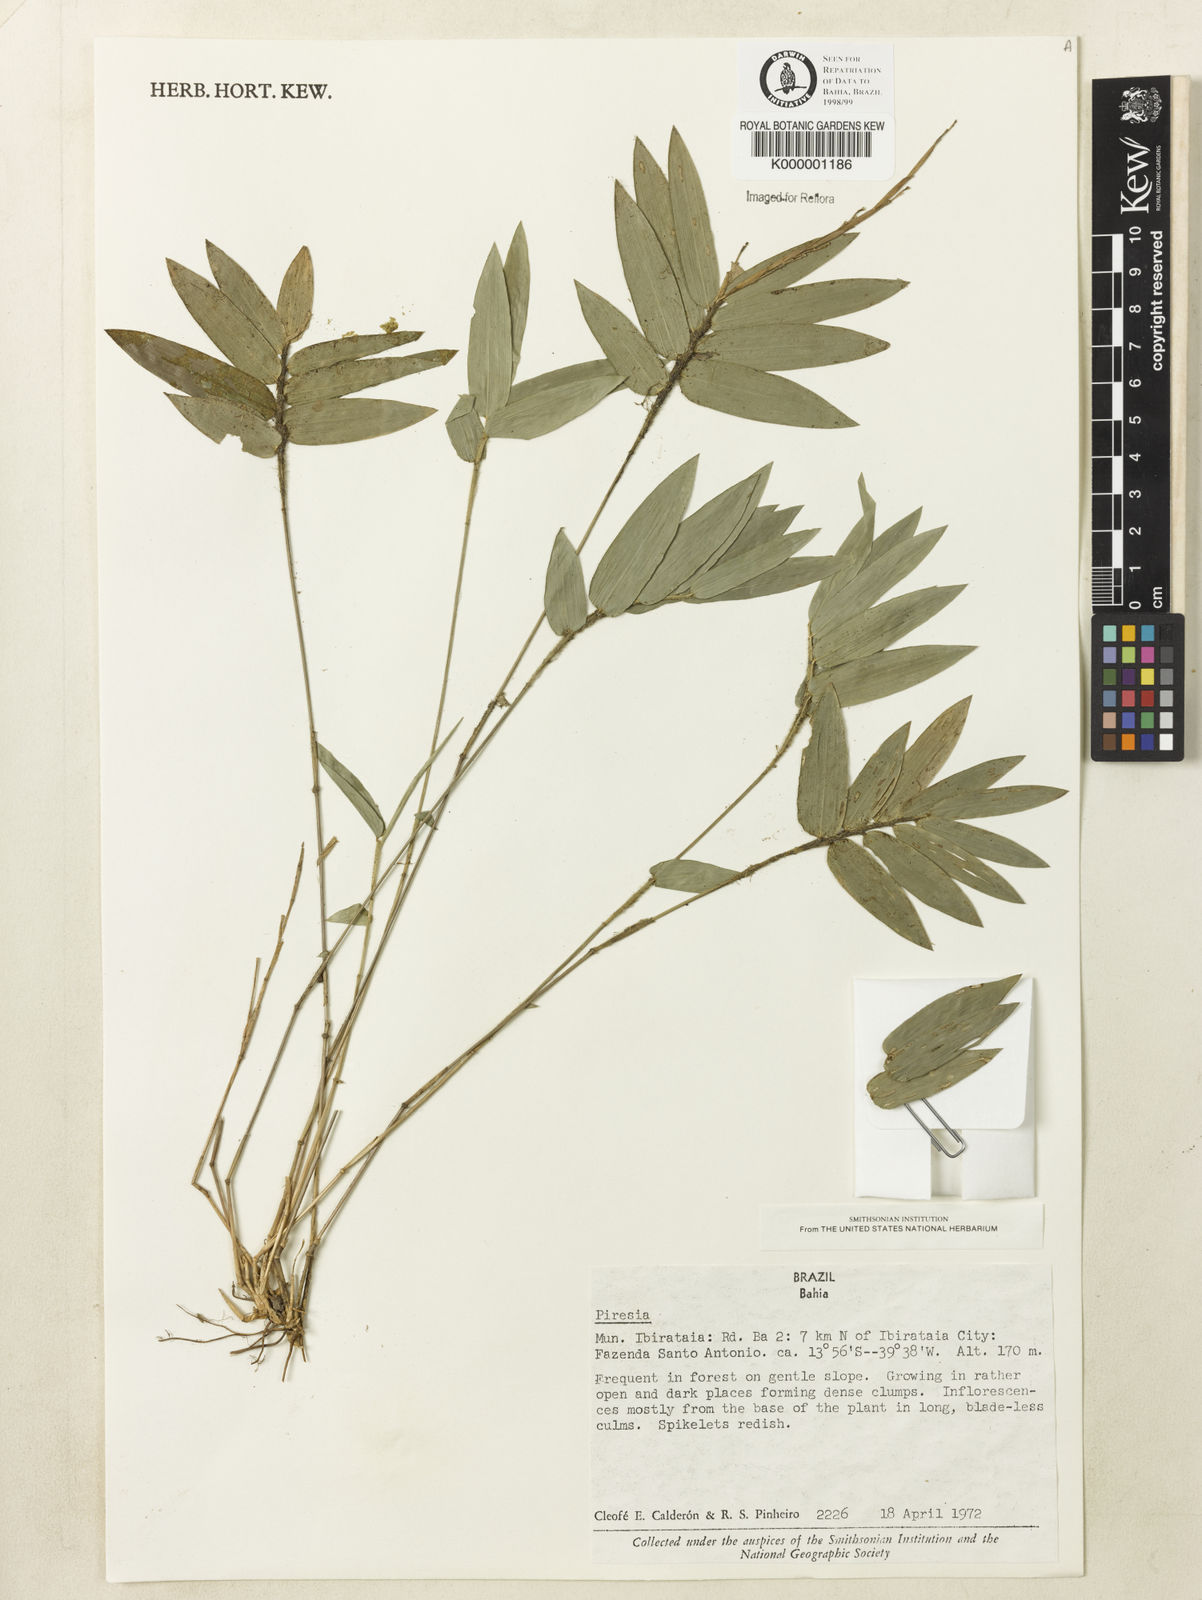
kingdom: Plantae
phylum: Tracheophyta
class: Liliopsida
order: Poales
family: Poaceae
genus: Piresia
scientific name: Piresia
